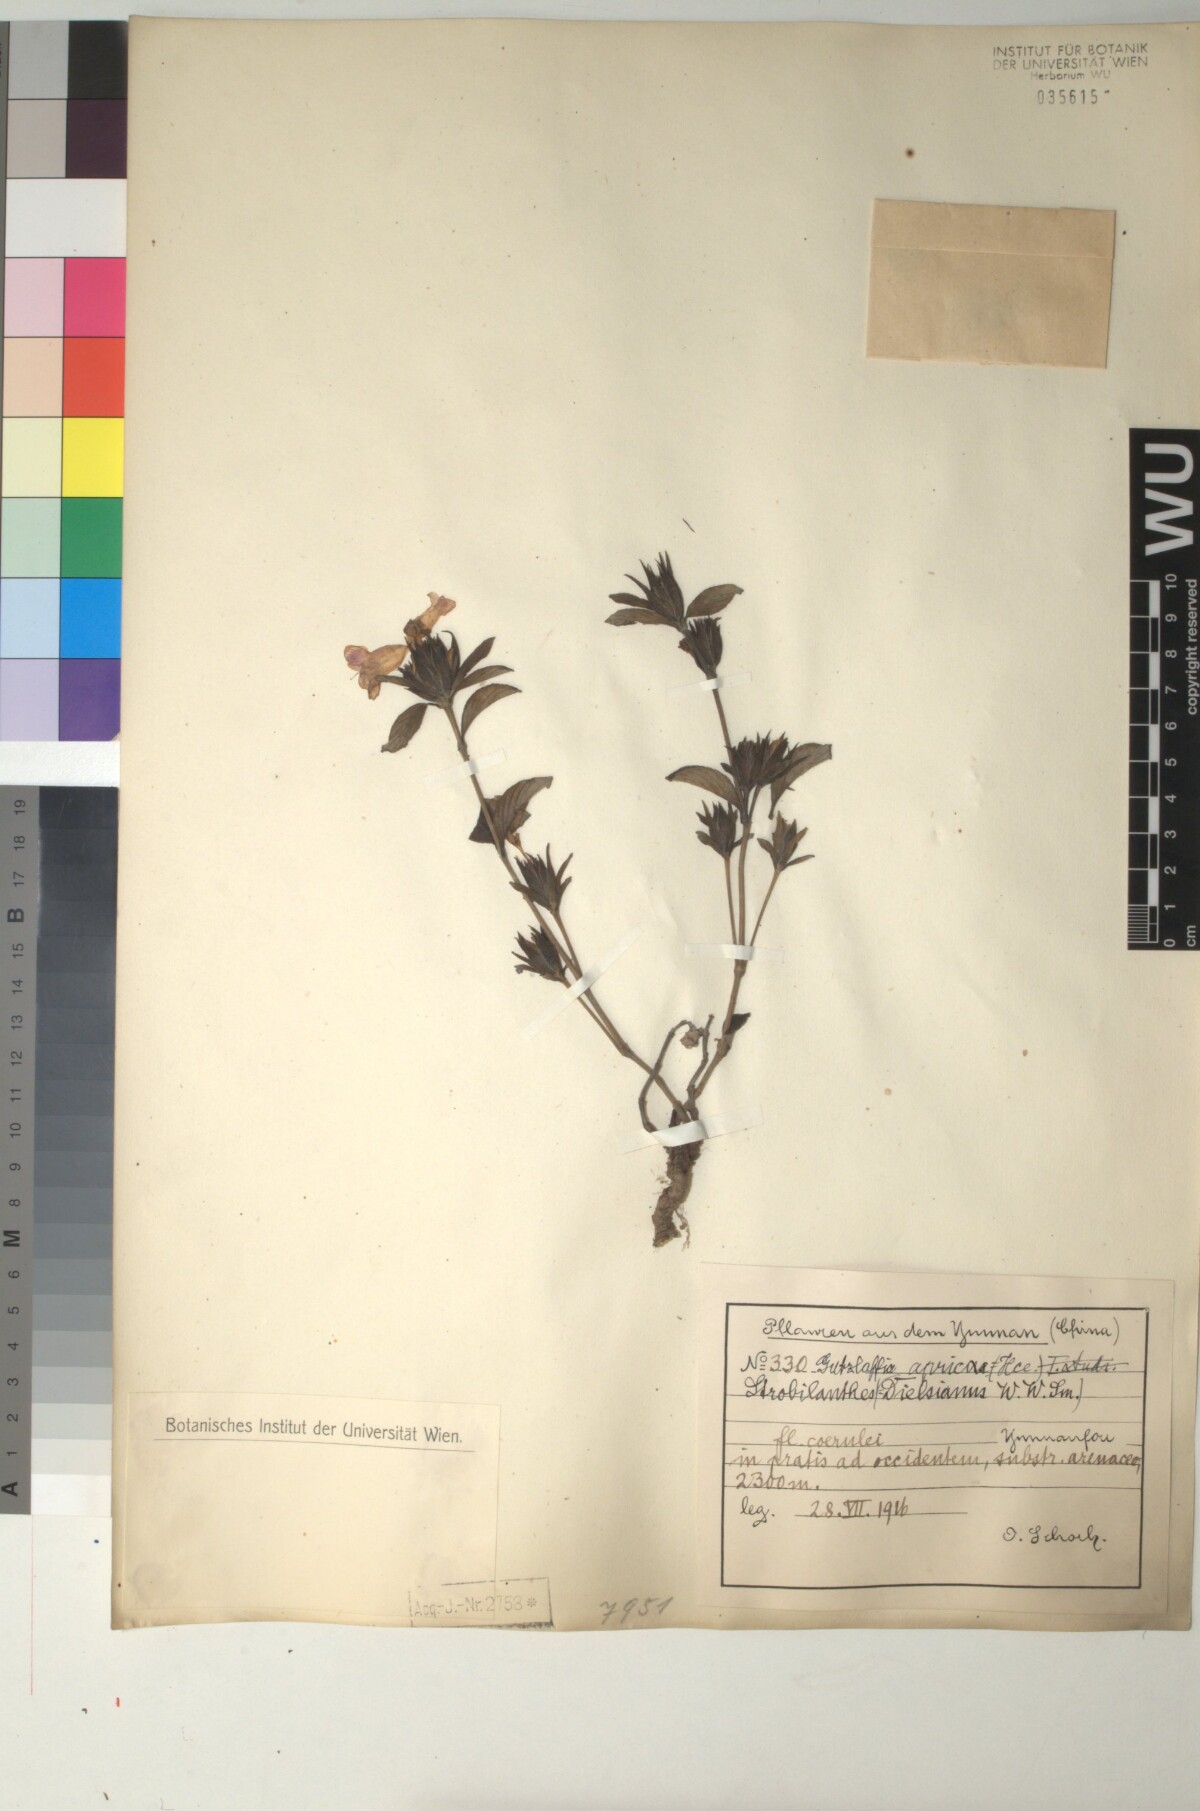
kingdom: Plantae
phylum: Tracheophyta
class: Magnoliopsida
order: Lamiales
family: Acanthaceae
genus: Strobilanthes
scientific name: Strobilanthes aprica
